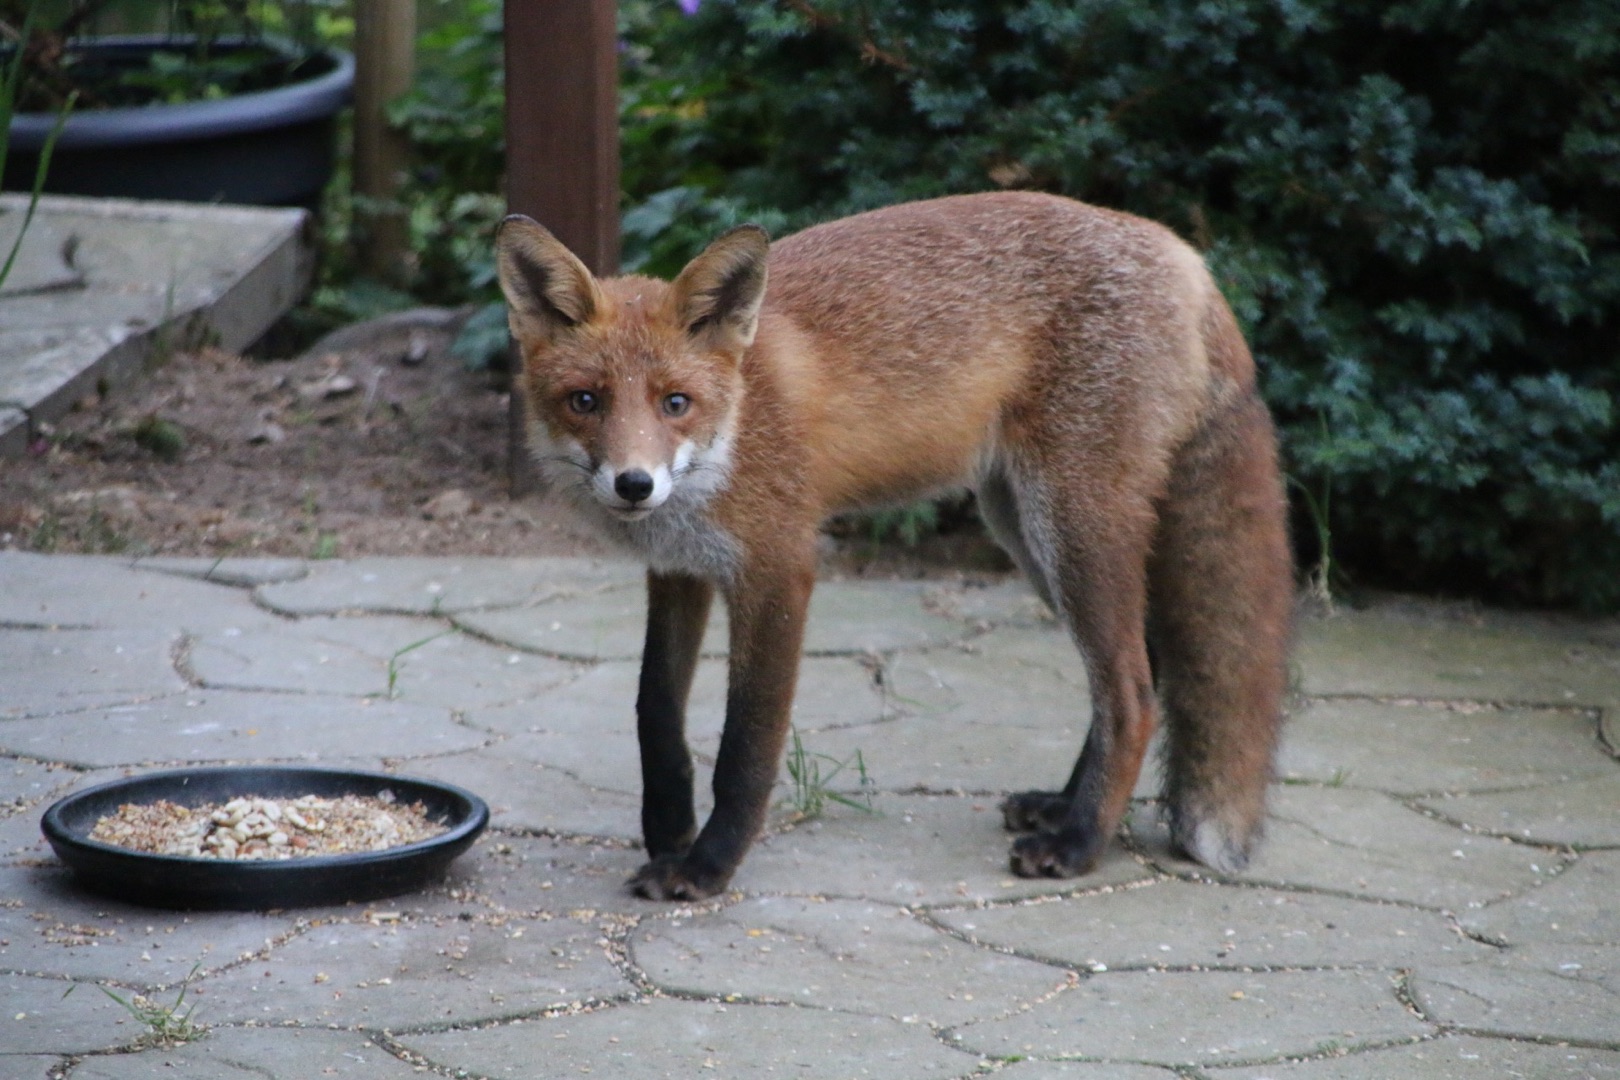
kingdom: Animalia
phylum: Chordata
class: Mammalia
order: Carnivora
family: Canidae
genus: Vulpes
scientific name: Vulpes vulpes
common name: Ræv
